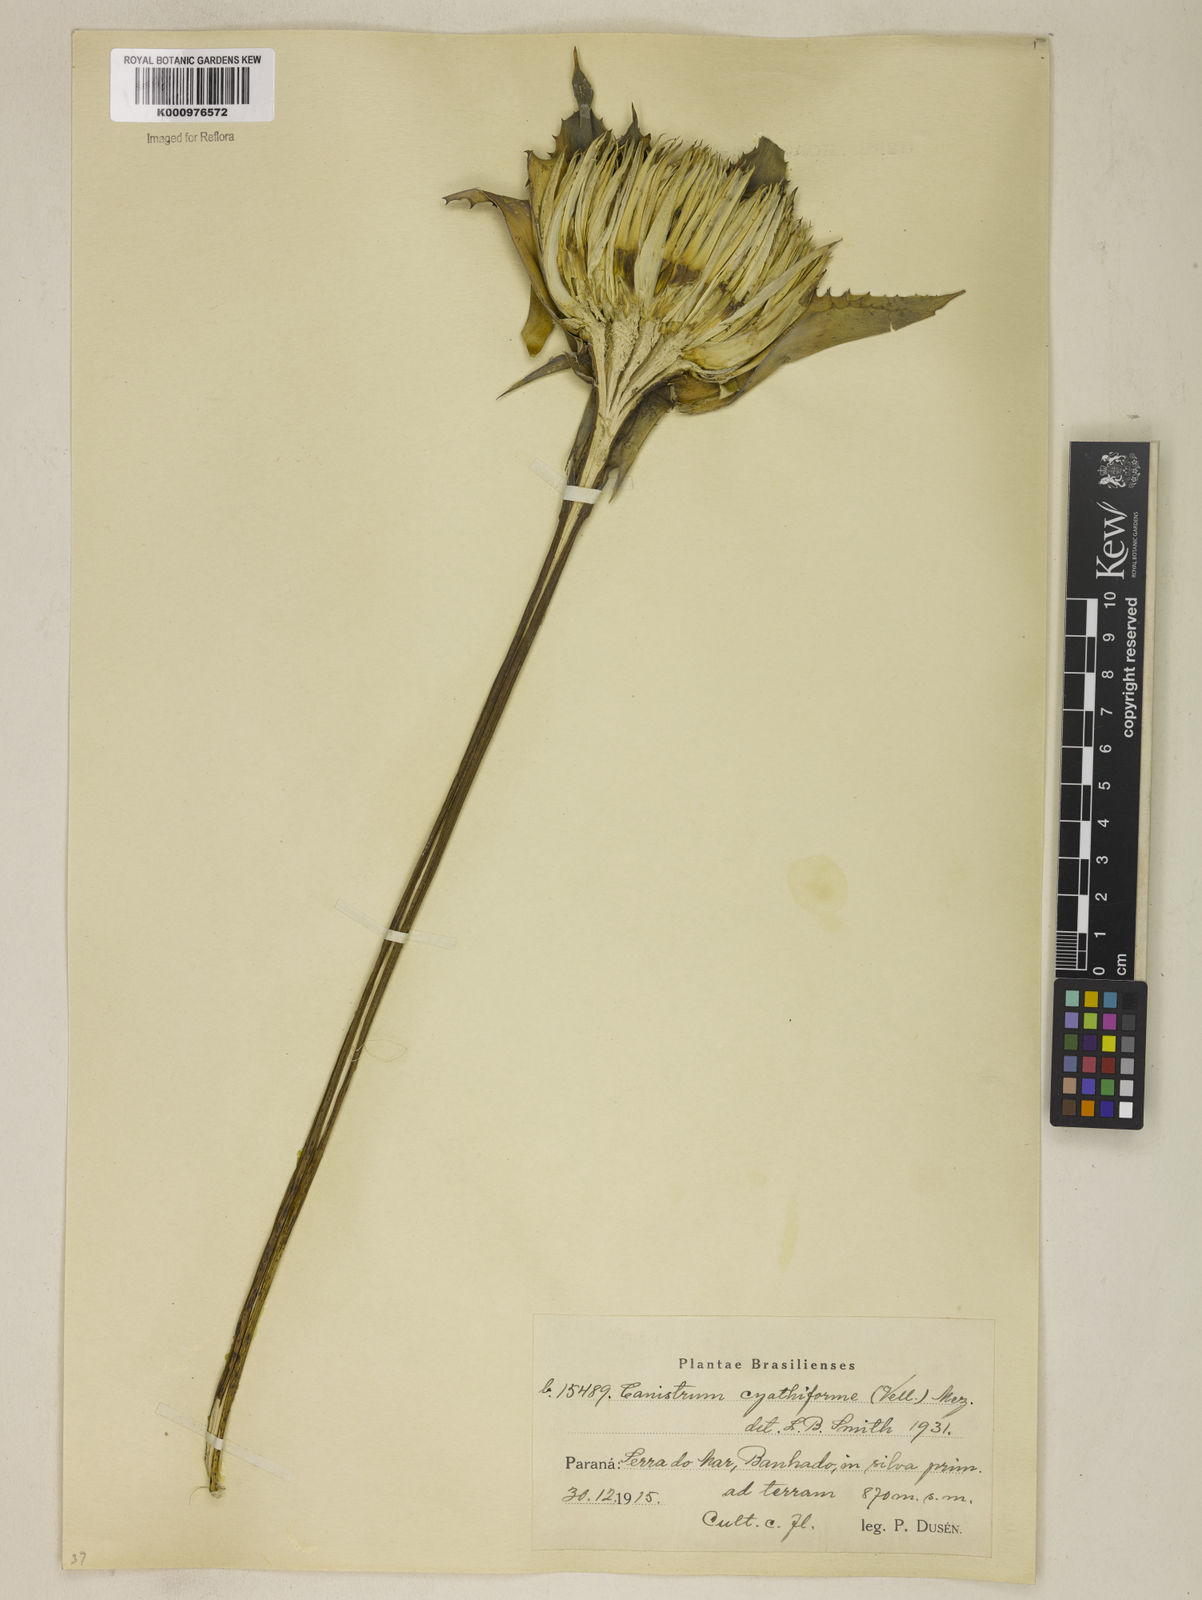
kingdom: Plantae
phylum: Tracheophyta
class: Liliopsida
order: Poales
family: Bromeliaceae
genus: Wittrockia
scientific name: Wittrockia cyathiformis
